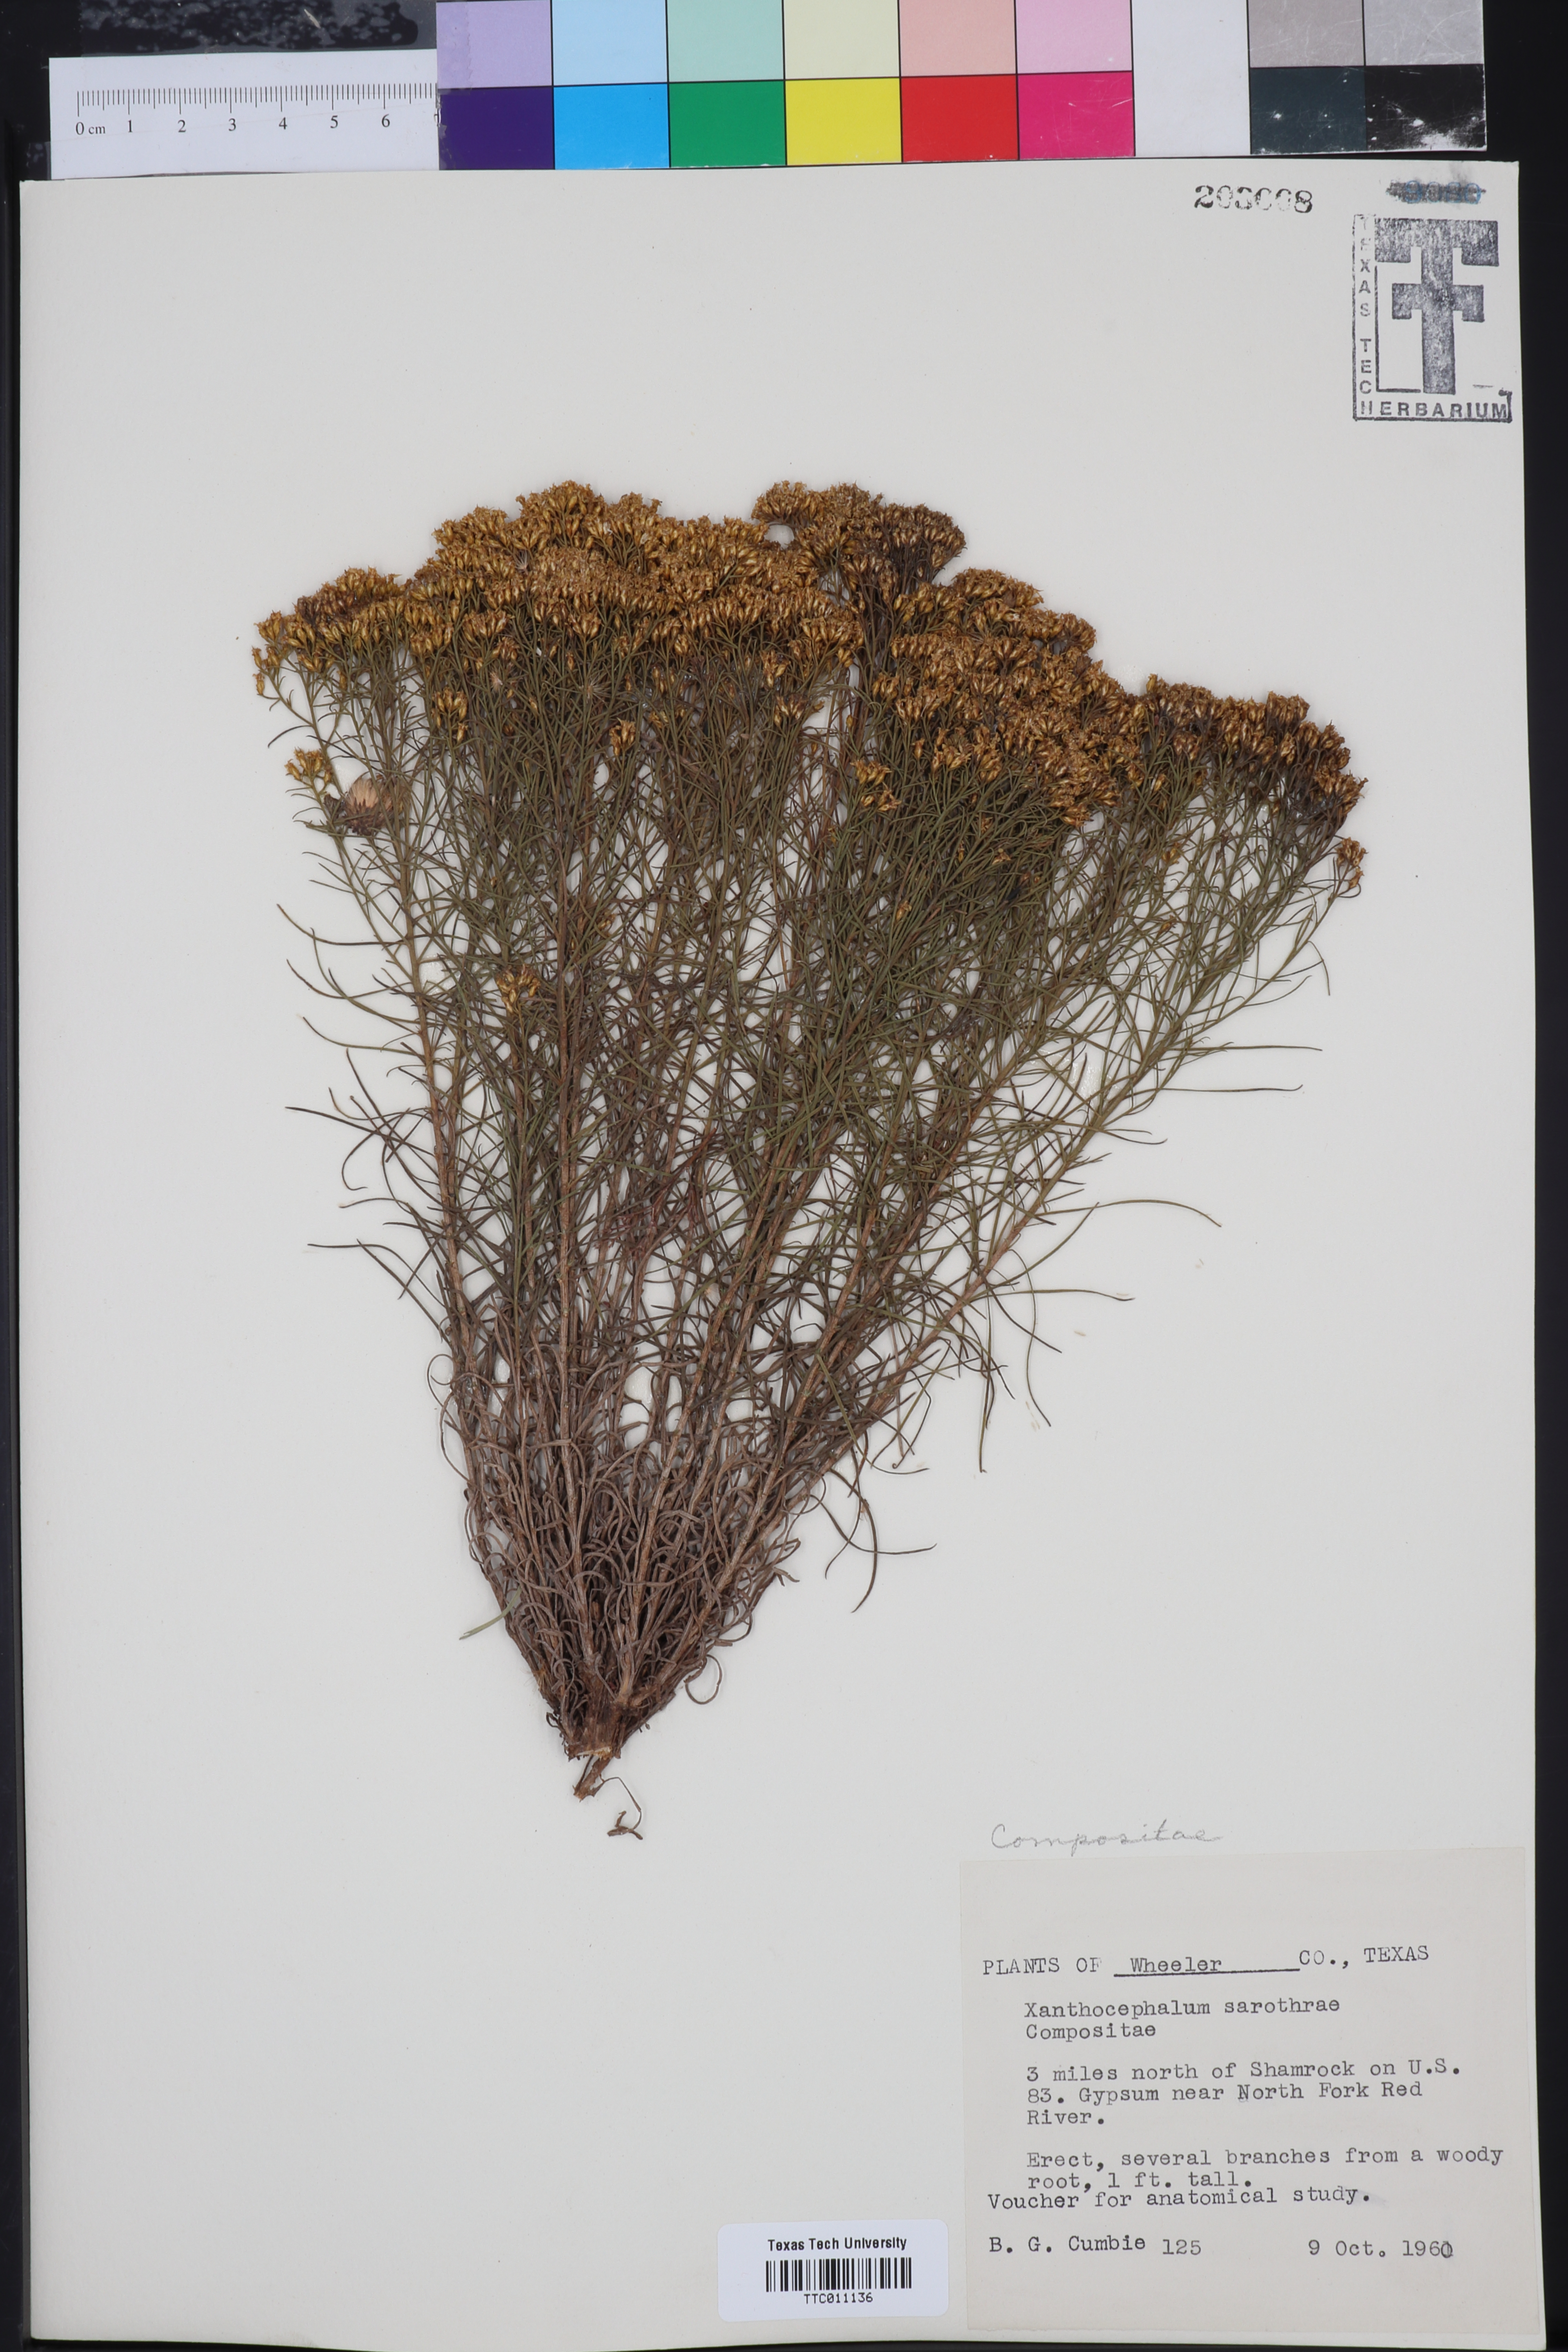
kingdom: Plantae
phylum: Tracheophyta
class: Magnoliopsida
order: Asterales
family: Asteraceae
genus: Gutierrezia
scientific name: Gutierrezia sarothrae
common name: Broom snakeweed
